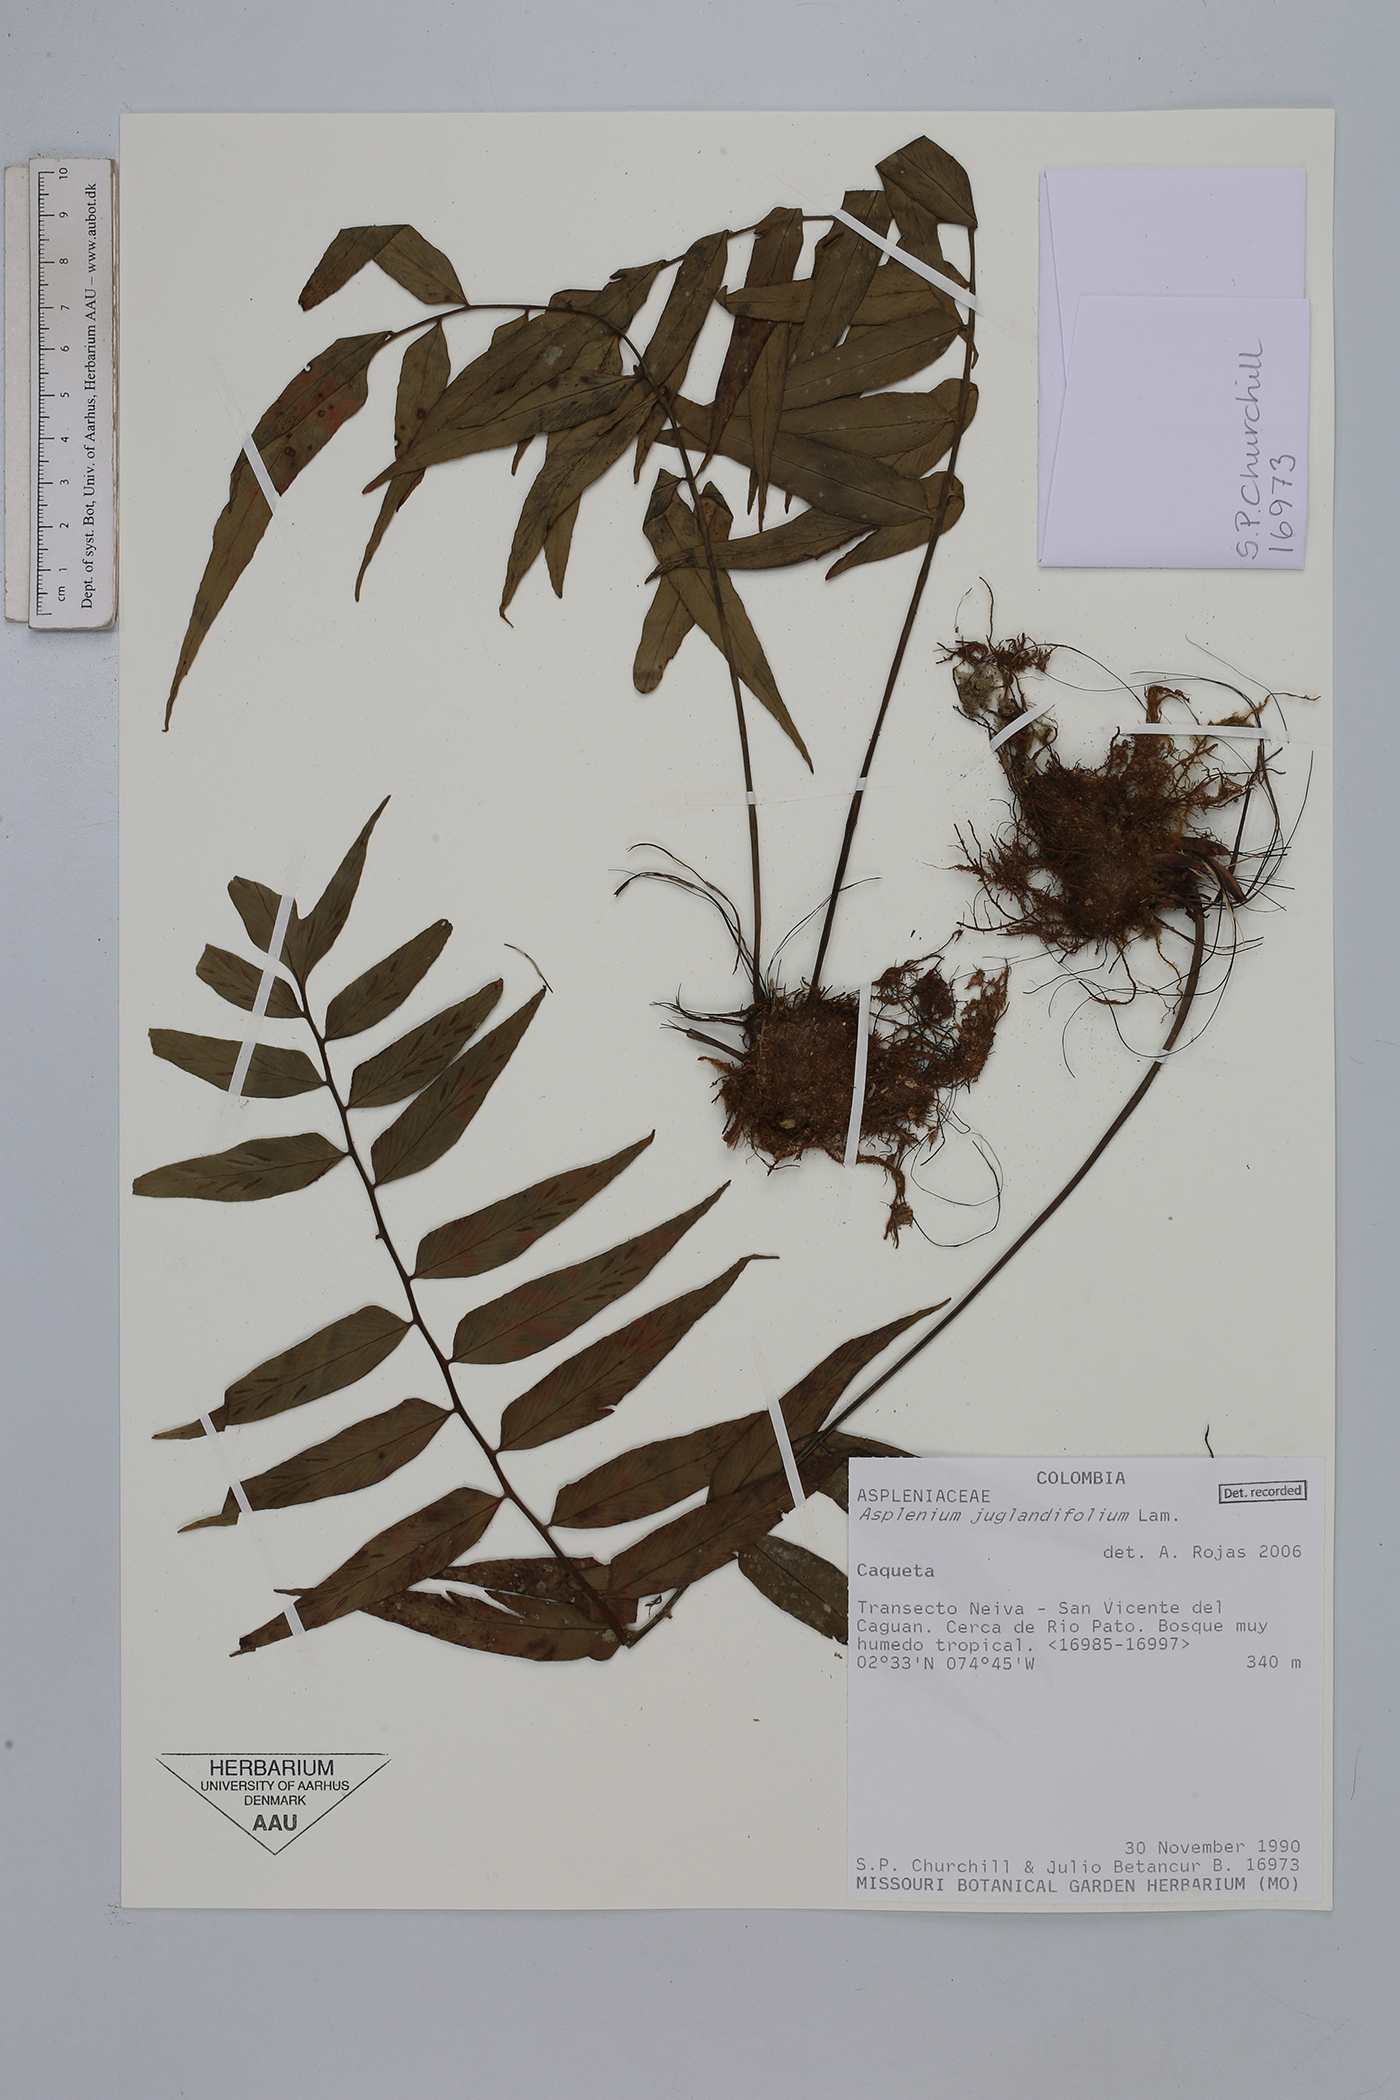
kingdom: Plantae
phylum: Tracheophyta
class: Polypodiopsida
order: Polypodiales
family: Aspleniaceae
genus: Asplenium
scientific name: Asplenium juglandifolium
